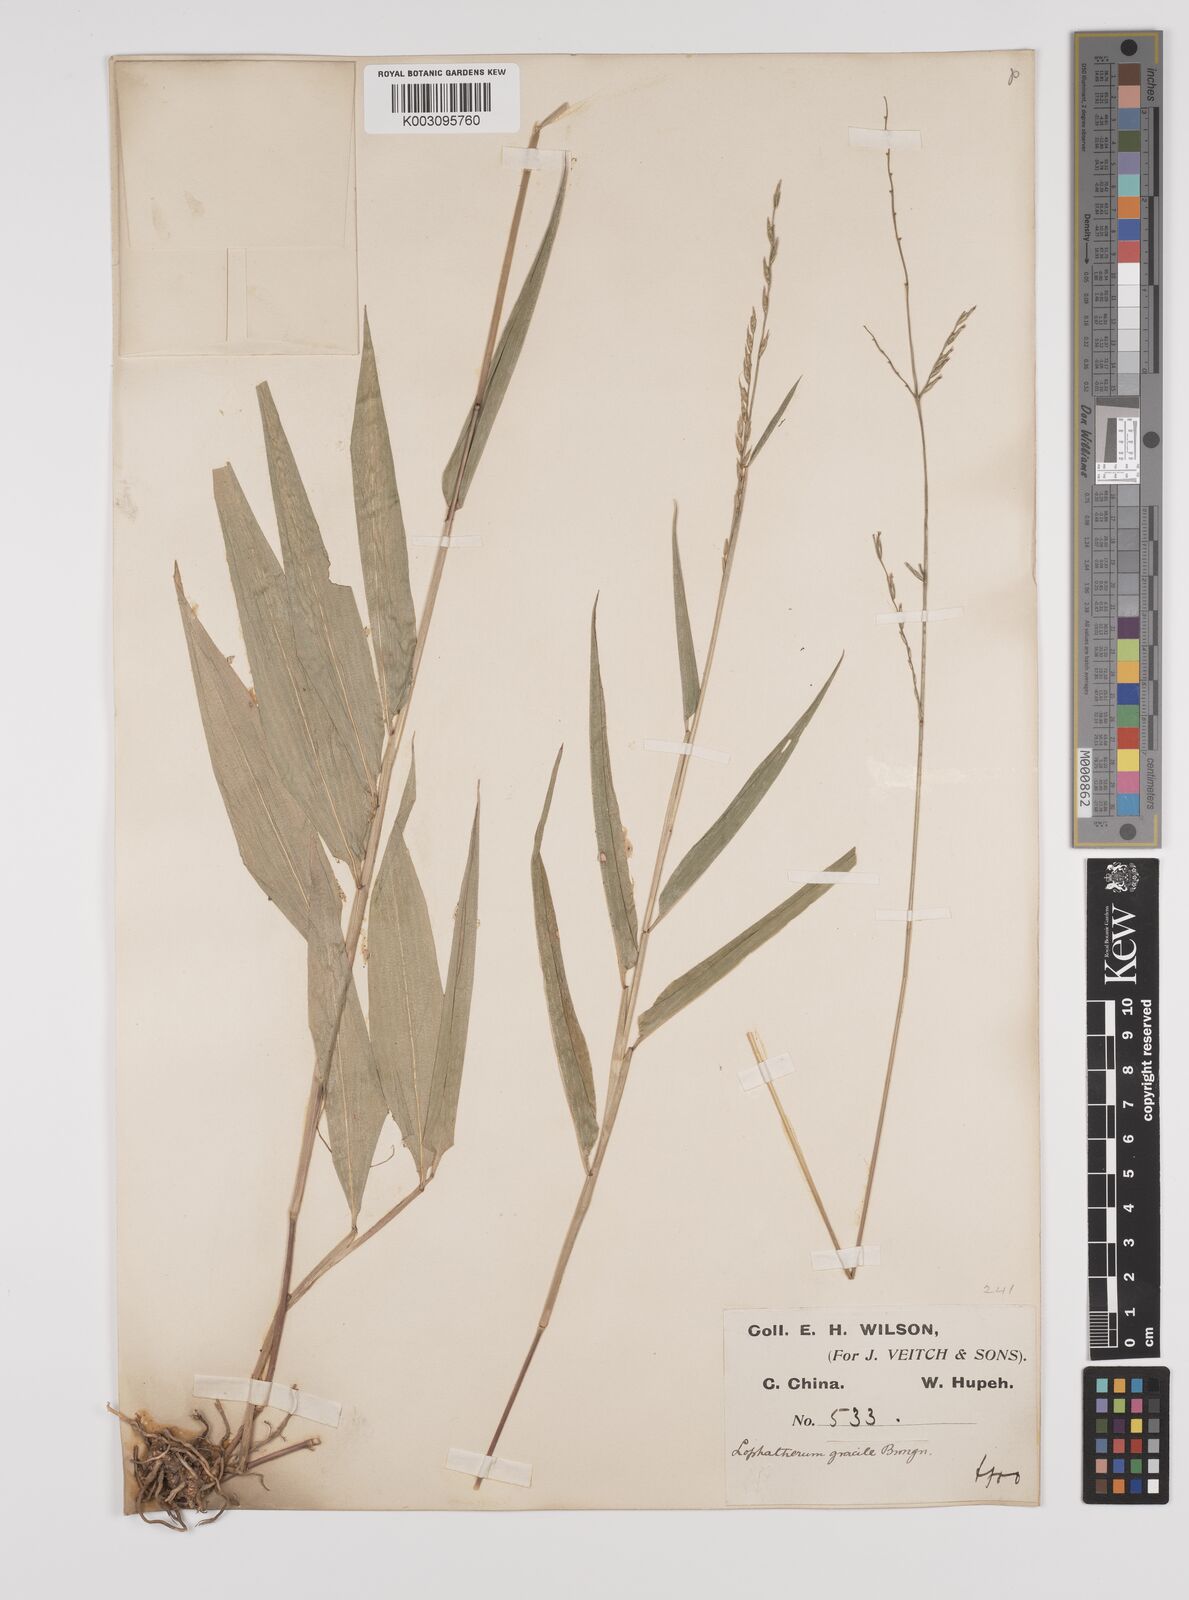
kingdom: Plantae
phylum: Tracheophyta
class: Liliopsida
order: Poales
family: Poaceae
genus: Lophatherum
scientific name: Lophatherum gracile
